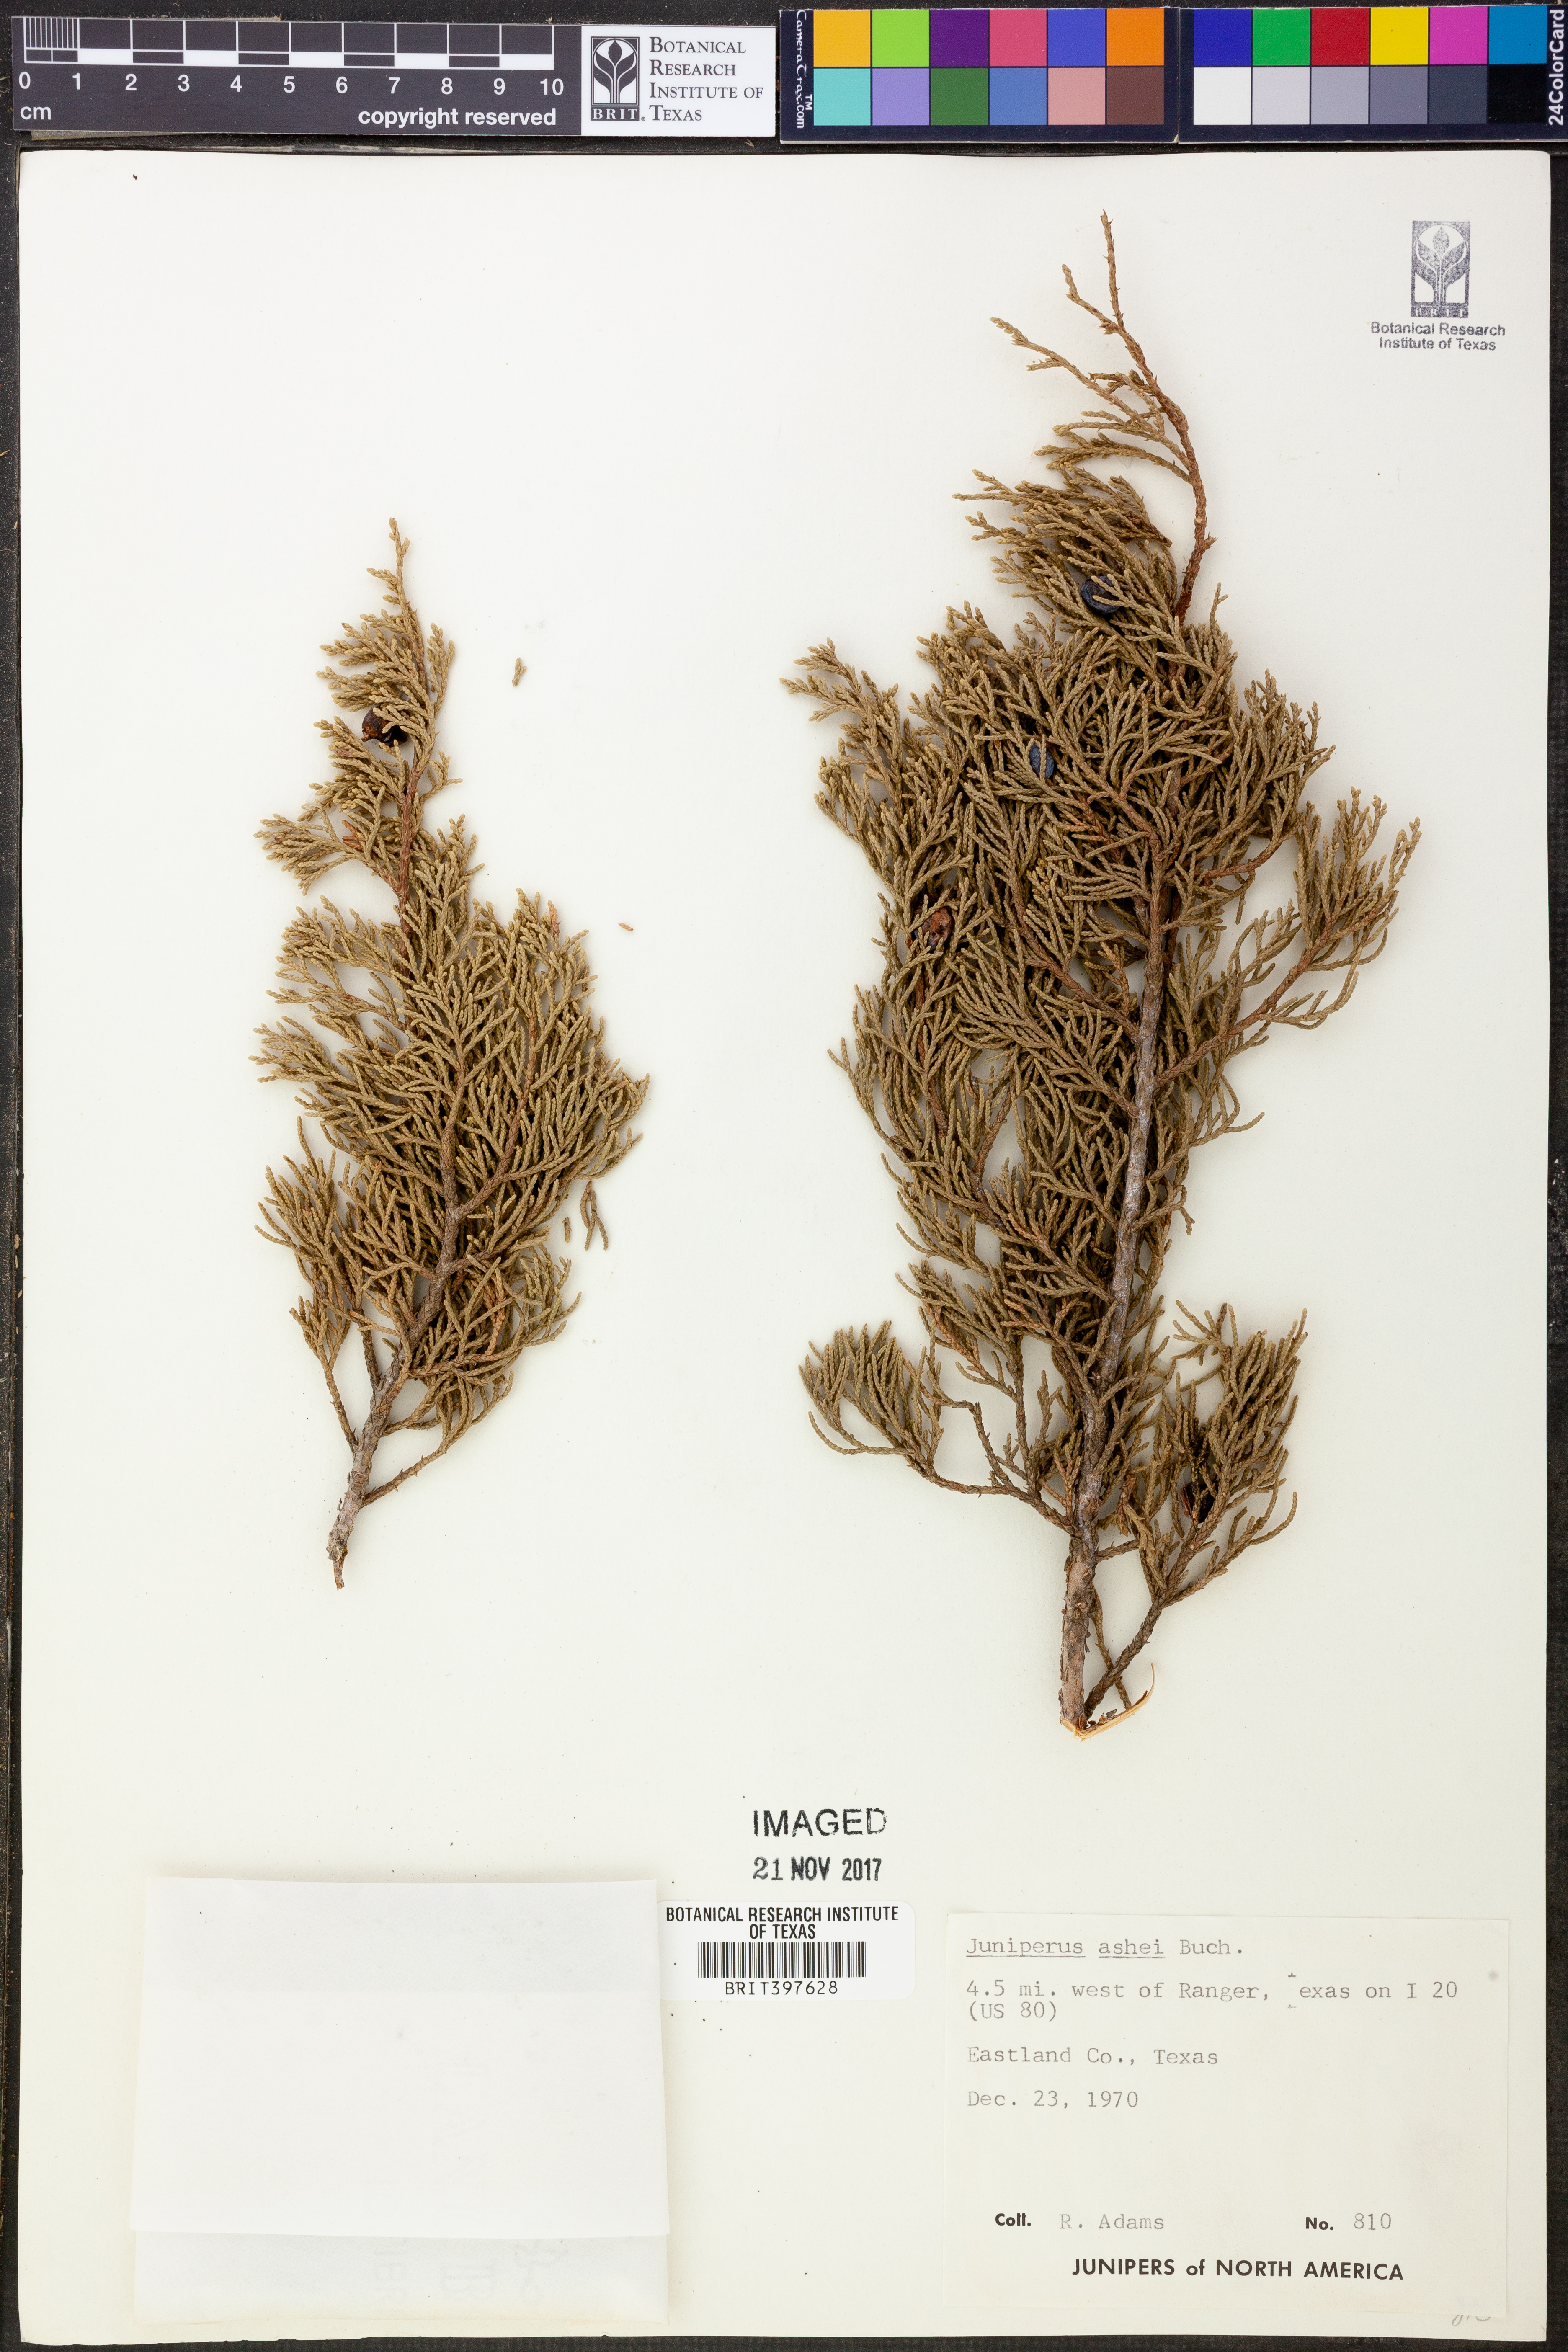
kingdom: Plantae
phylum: Tracheophyta
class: Pinopsida
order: Pinales
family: Cupressaceae
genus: Juniperus
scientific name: Juniperus ashei
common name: Mexican juniper
